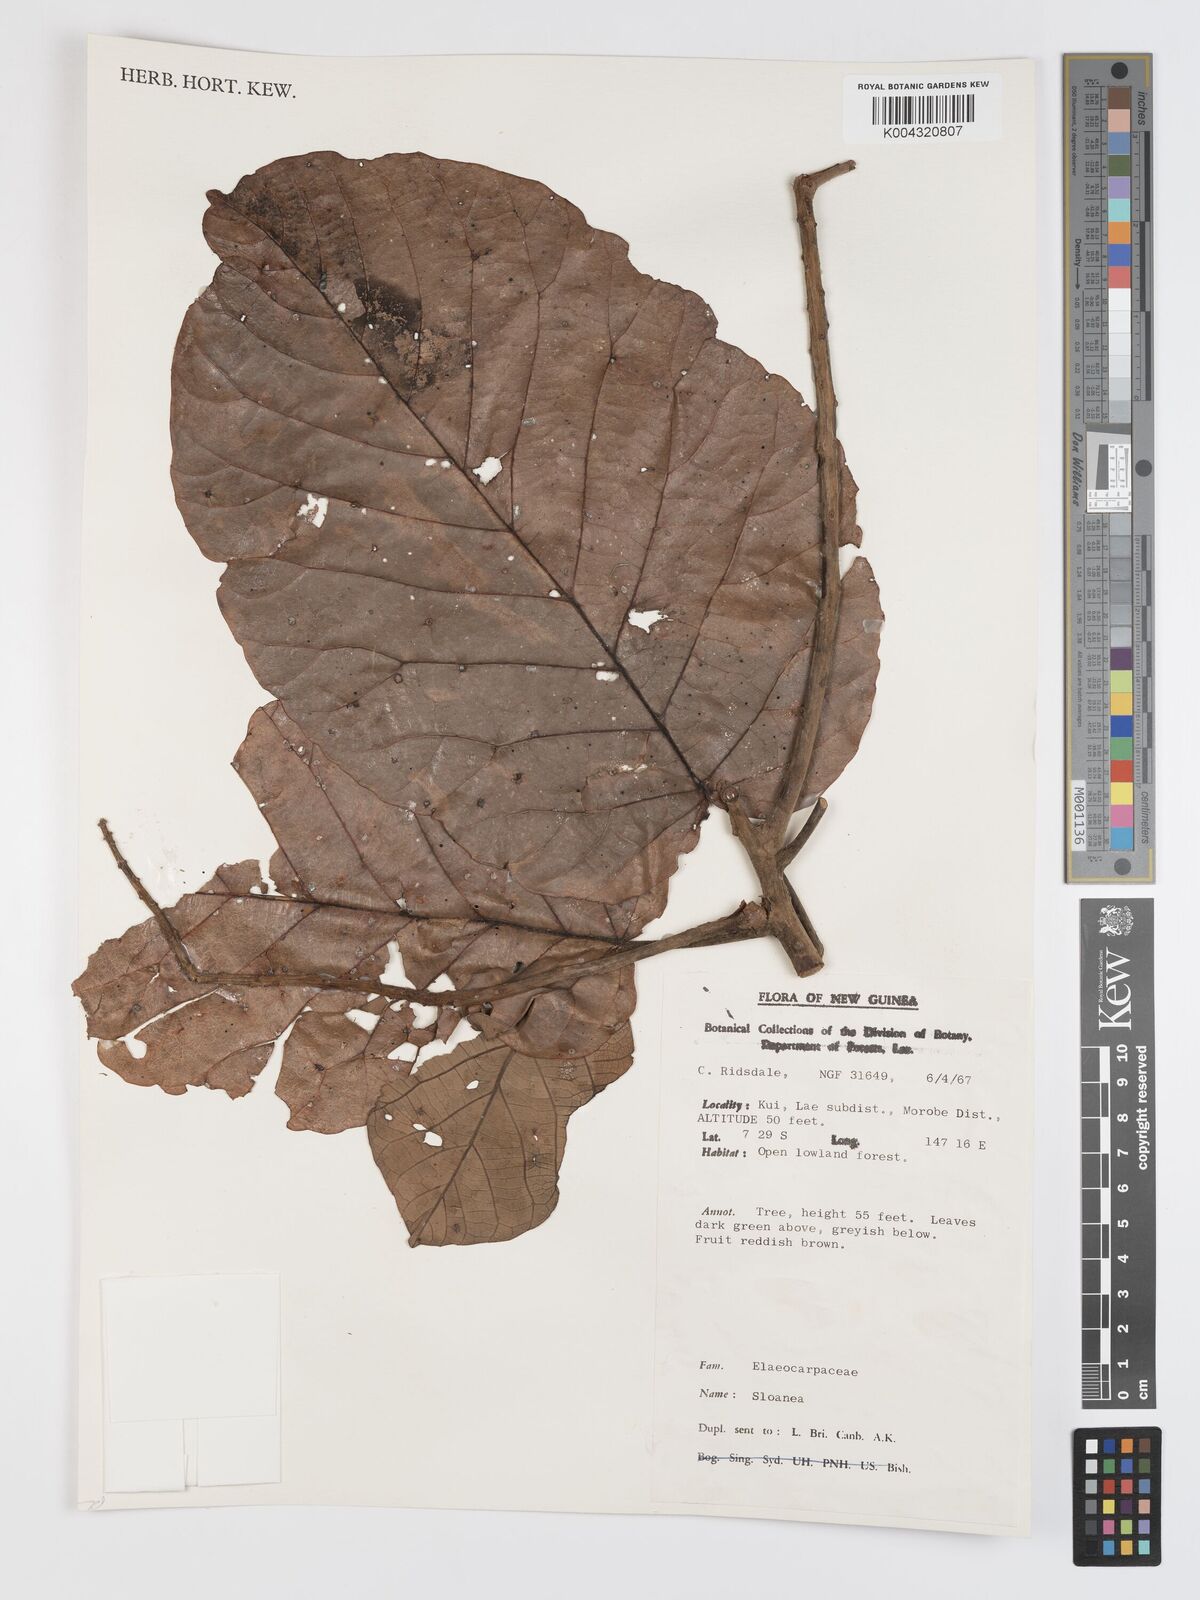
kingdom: Plantae
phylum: Tracheophyta
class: Magnoliopsida
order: Oxalidales
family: Elaeocarpaceae
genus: Sloanea
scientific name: Sloanea sogerensis
